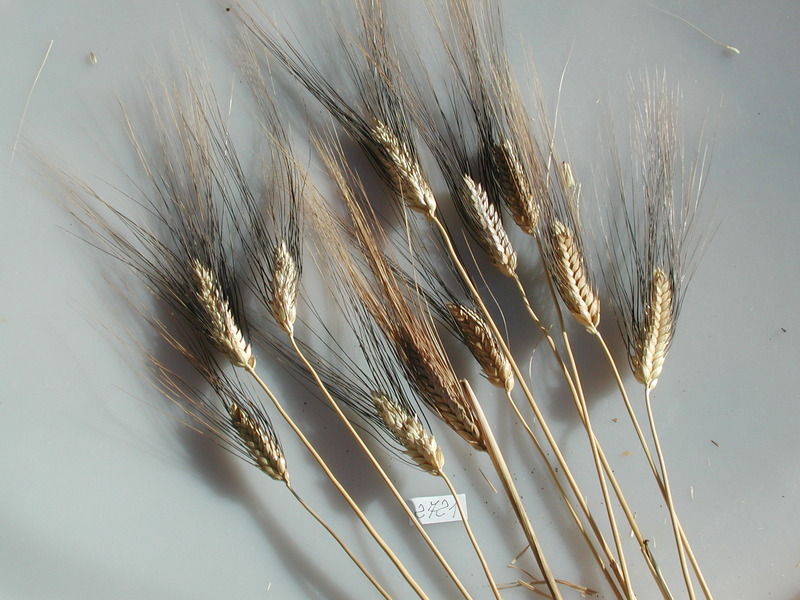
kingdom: Plantae
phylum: Tracheophyta
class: Liliopsida
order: Poales
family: Poaceae
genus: Triticum
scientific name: Triticum turgidum
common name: Wheat
